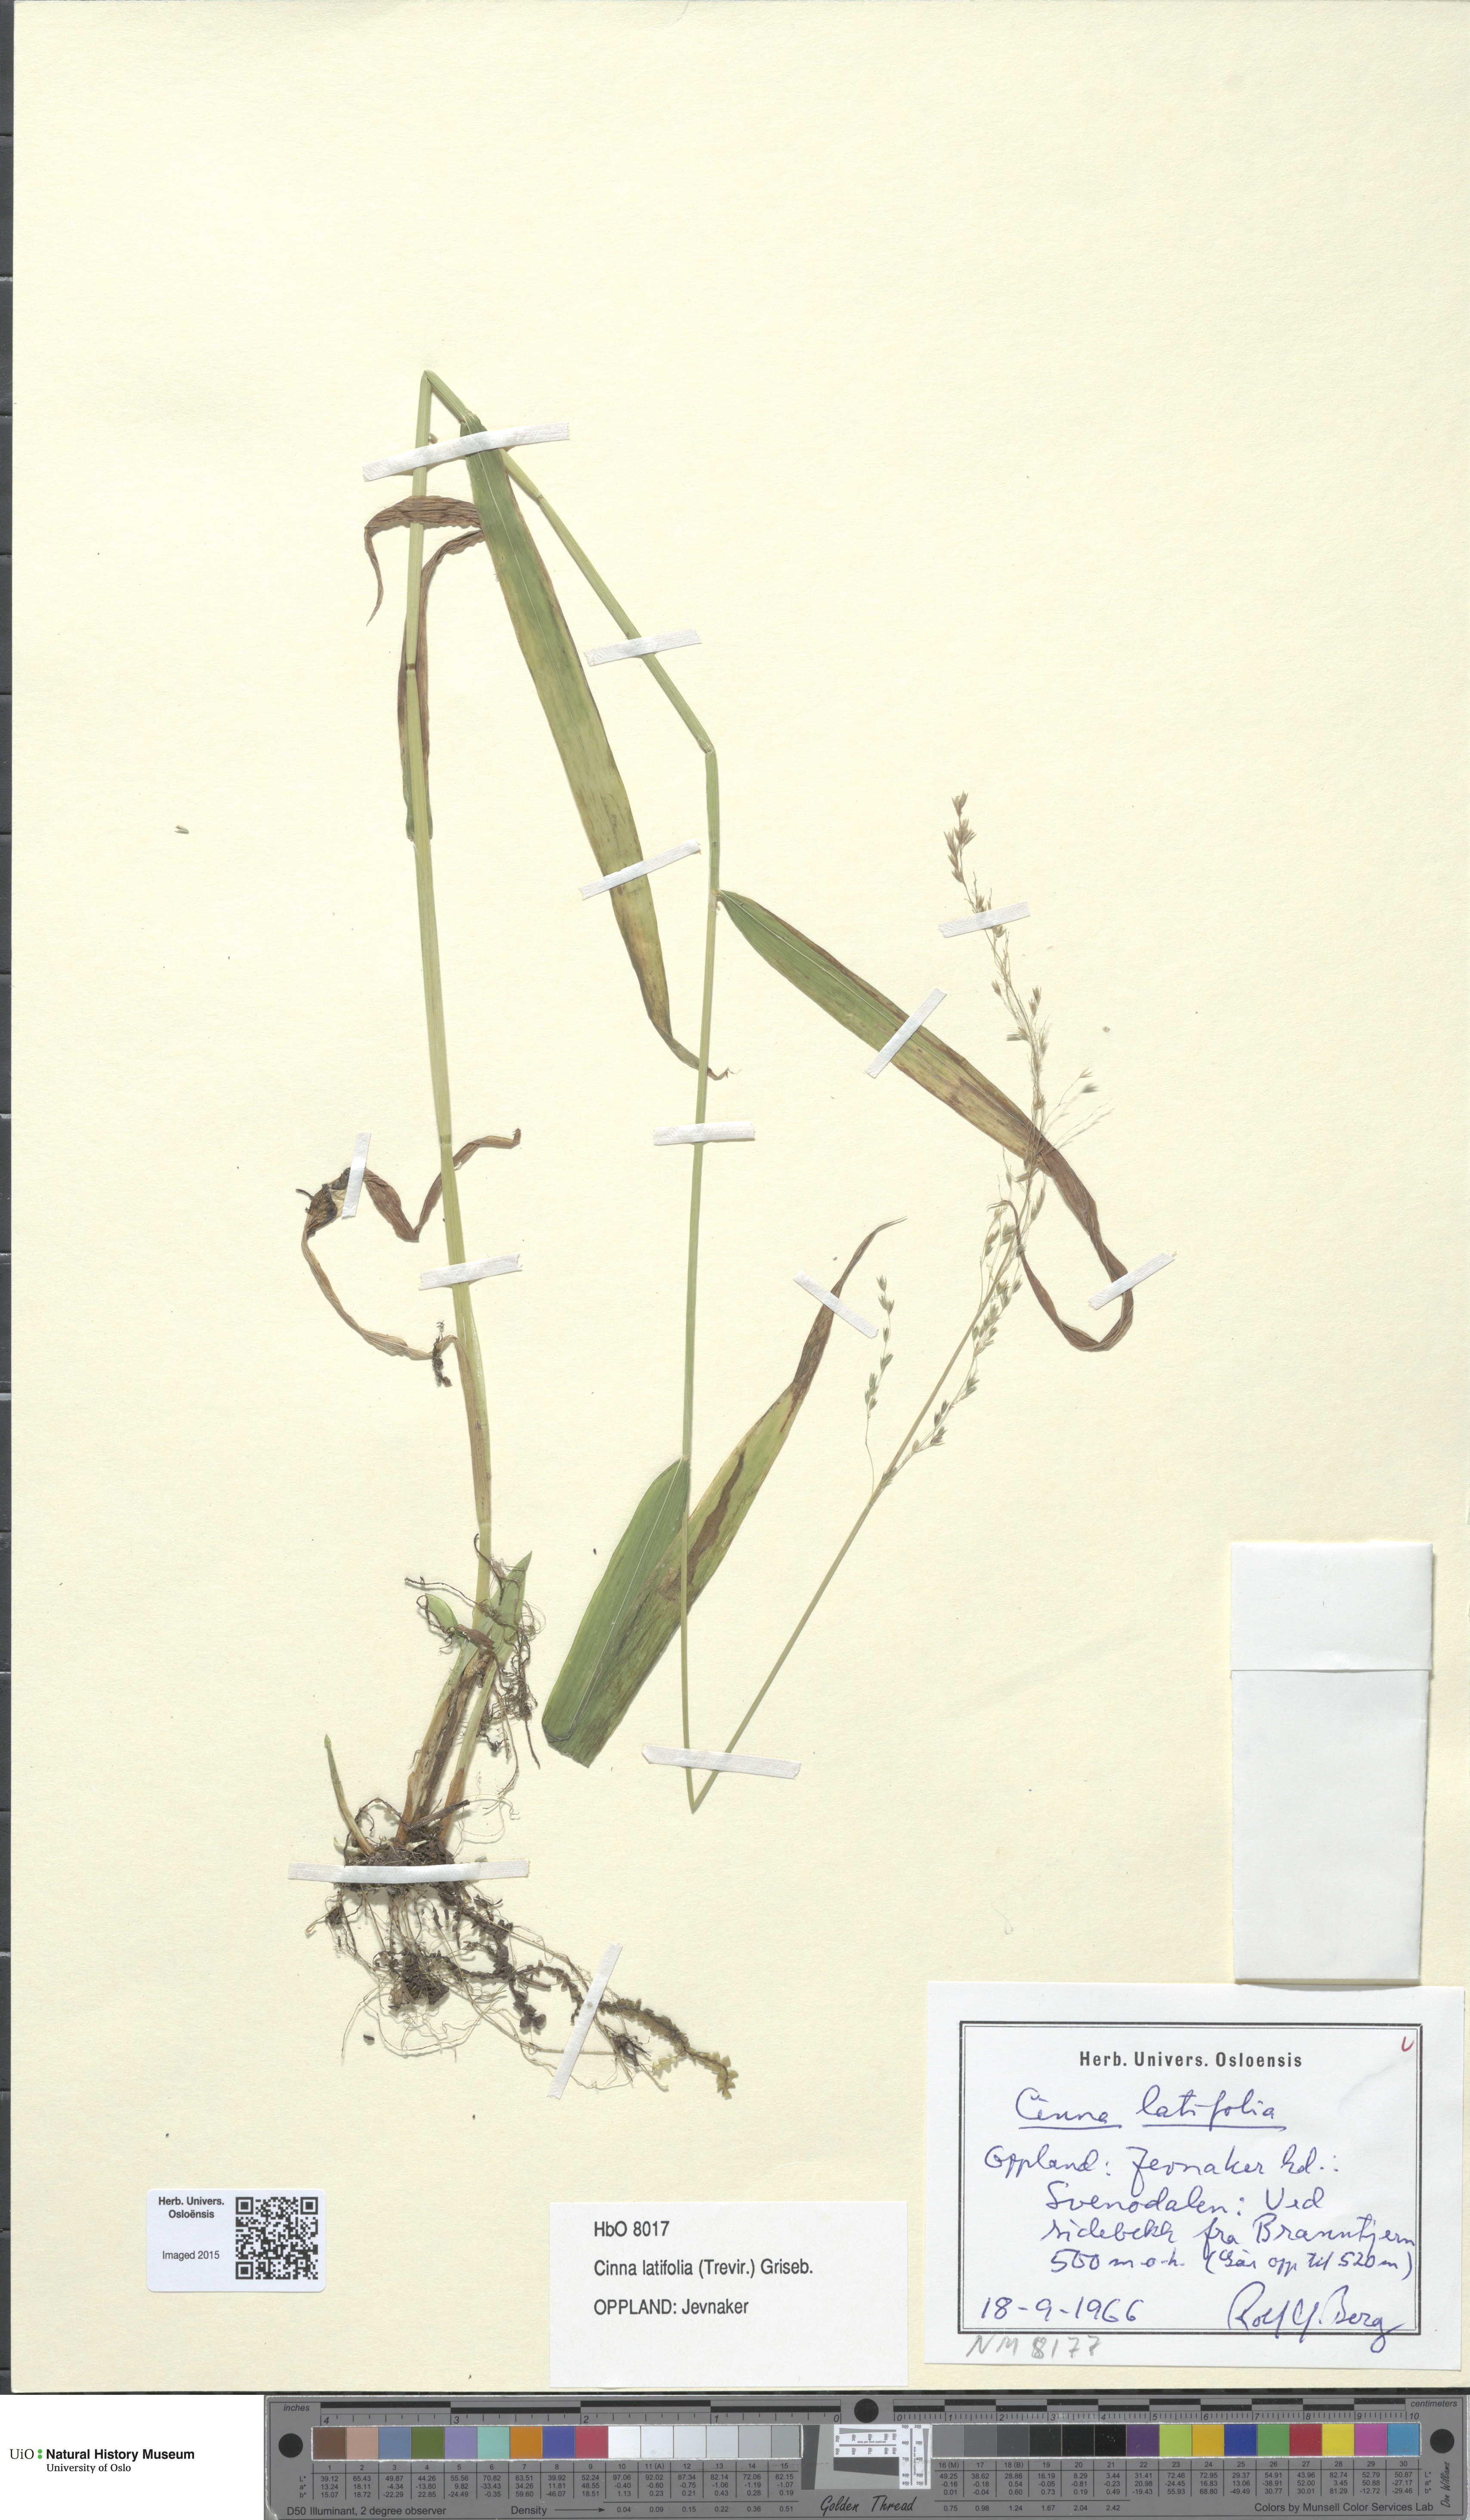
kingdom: Plantae
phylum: Tracheophyta
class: Liliopsida
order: Poales
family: Poaceae
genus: Cinna
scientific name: Cinna latifolia
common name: Drooping woodreed
